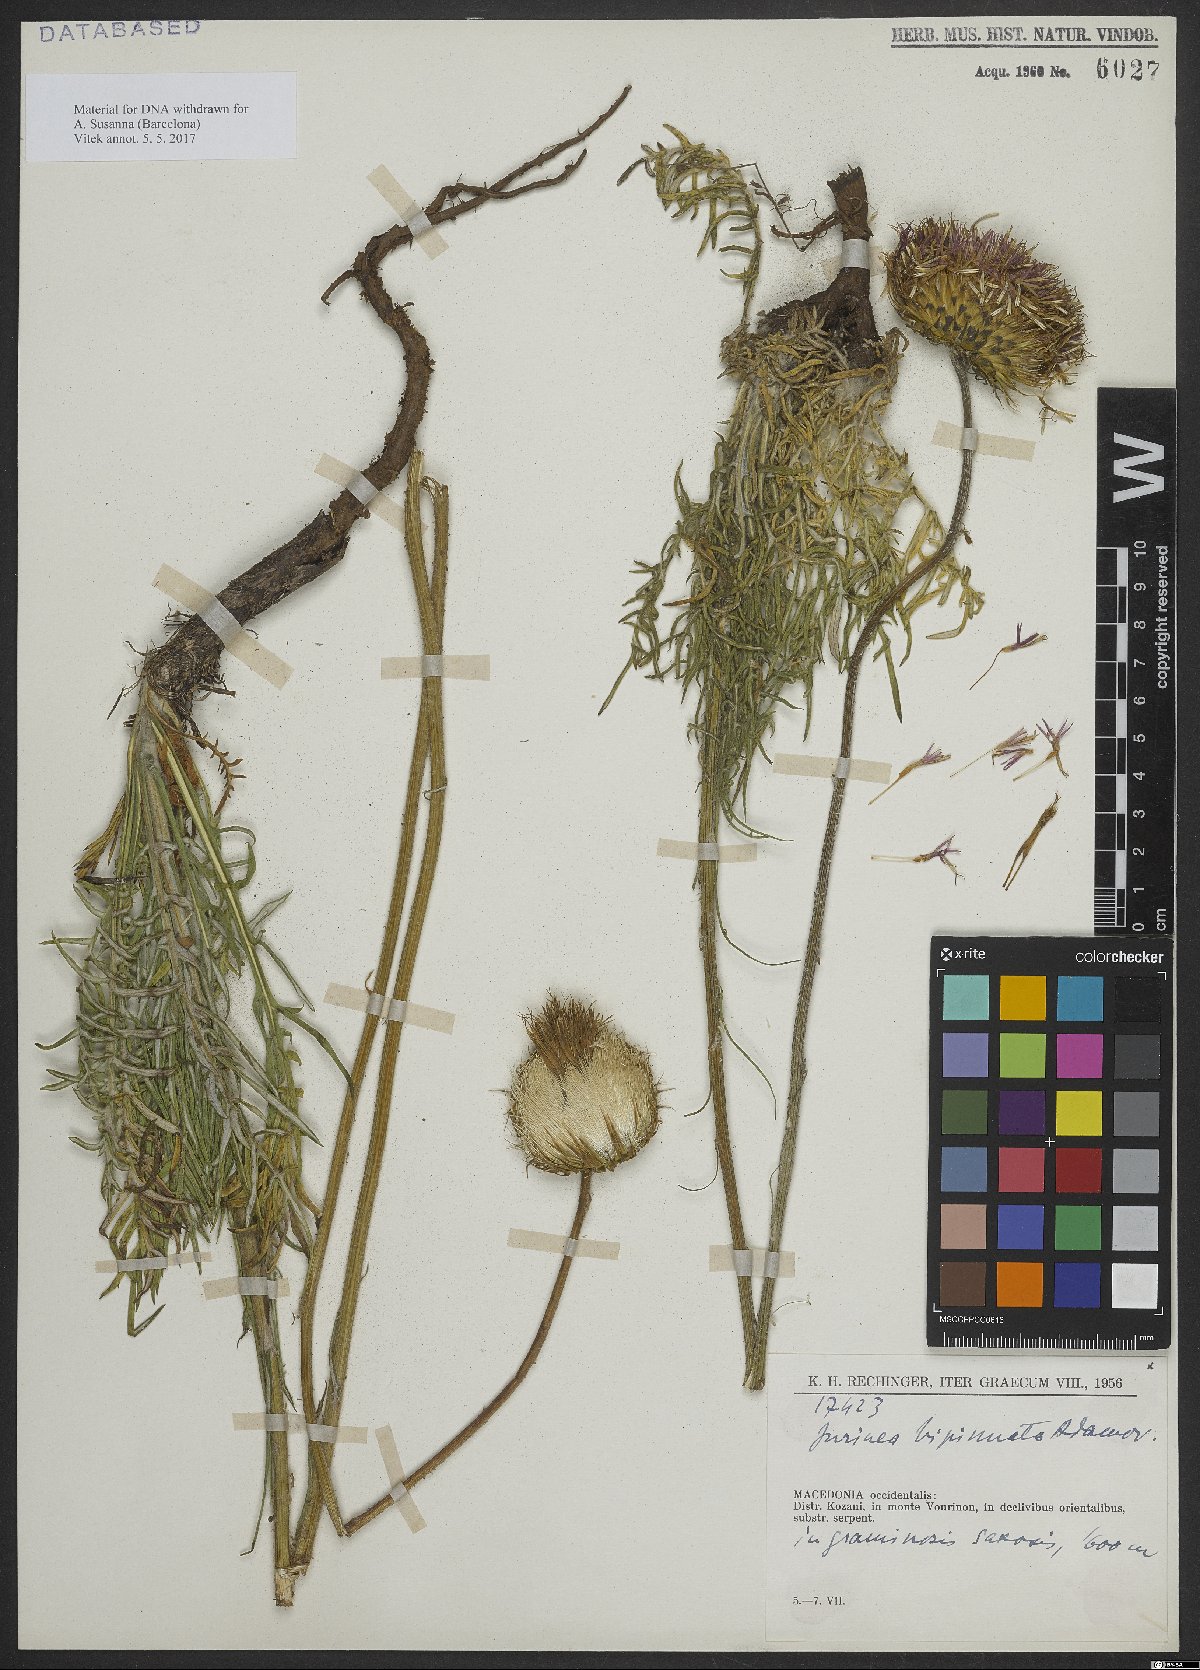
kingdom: Plantae
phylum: Tracheophyta
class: Magnoliopsida
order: Asterales
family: Asteraceae
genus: Jurinea
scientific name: Jurinea polycephala
